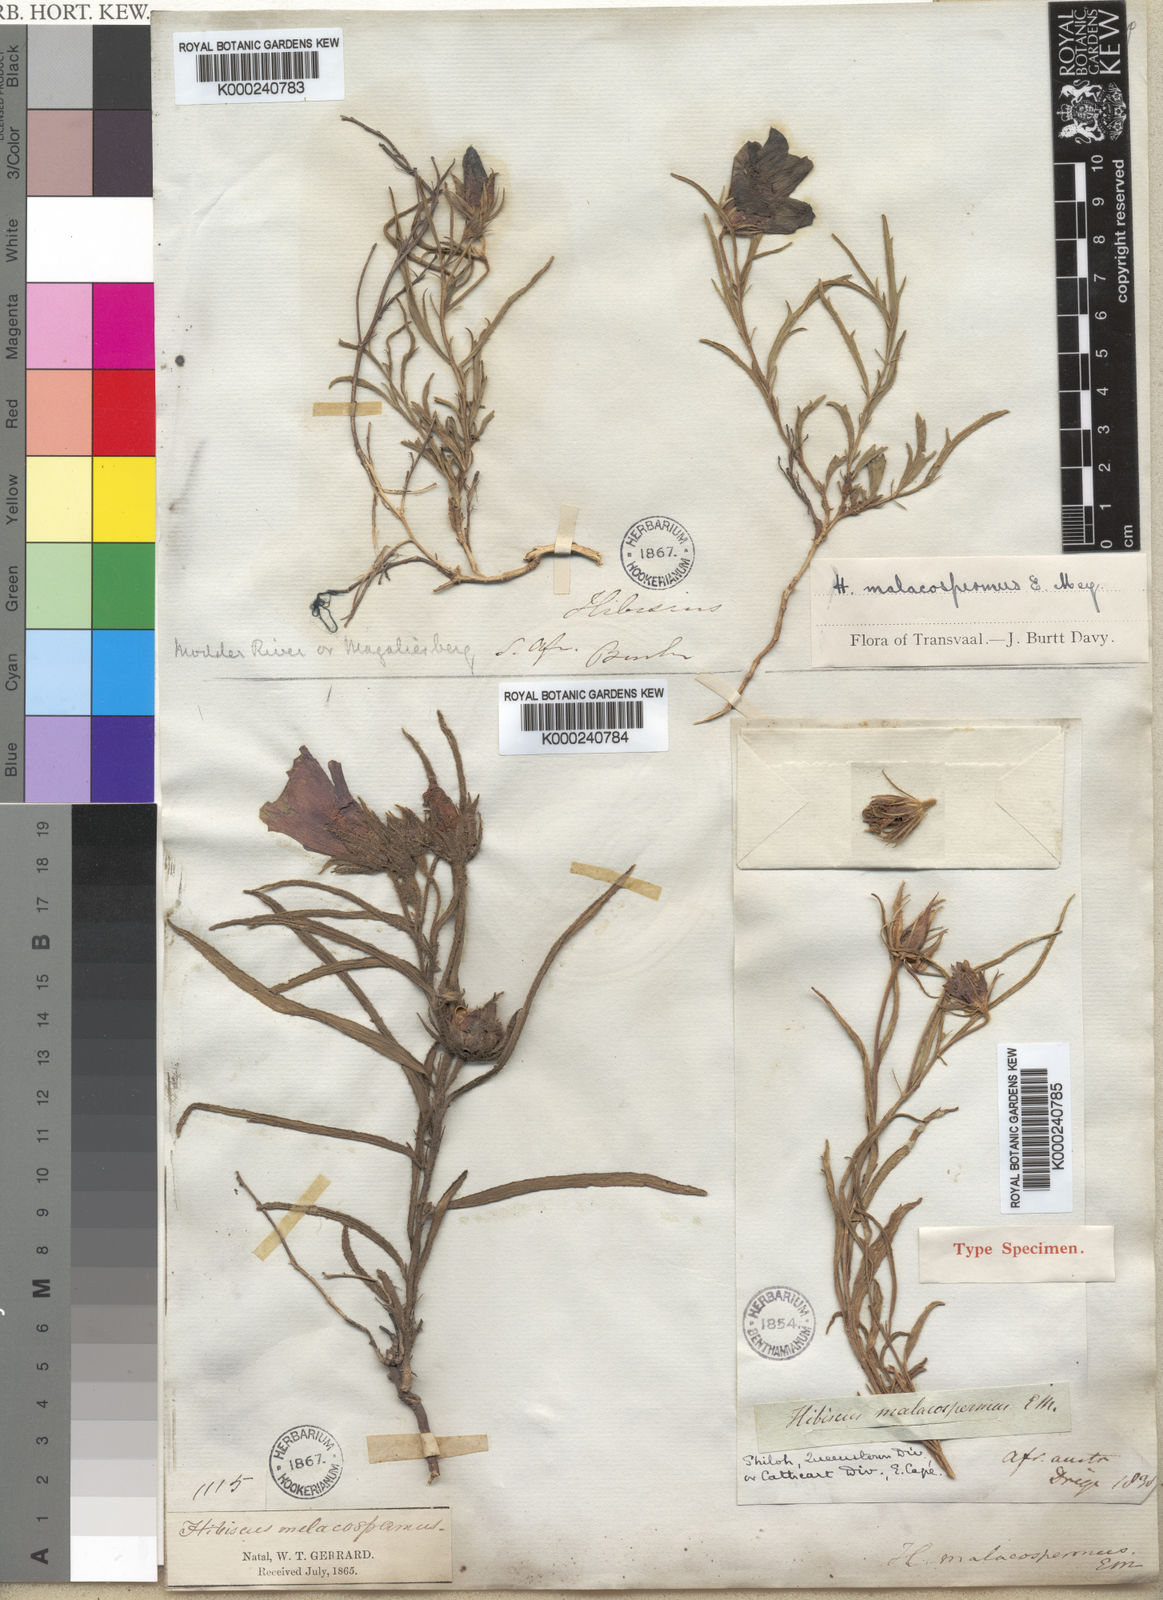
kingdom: Plantae
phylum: Tracheophyta
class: Magnoliopsida
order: Malvales
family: Malvaceae
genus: Hibiscus
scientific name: Hibiscus malacospermus
